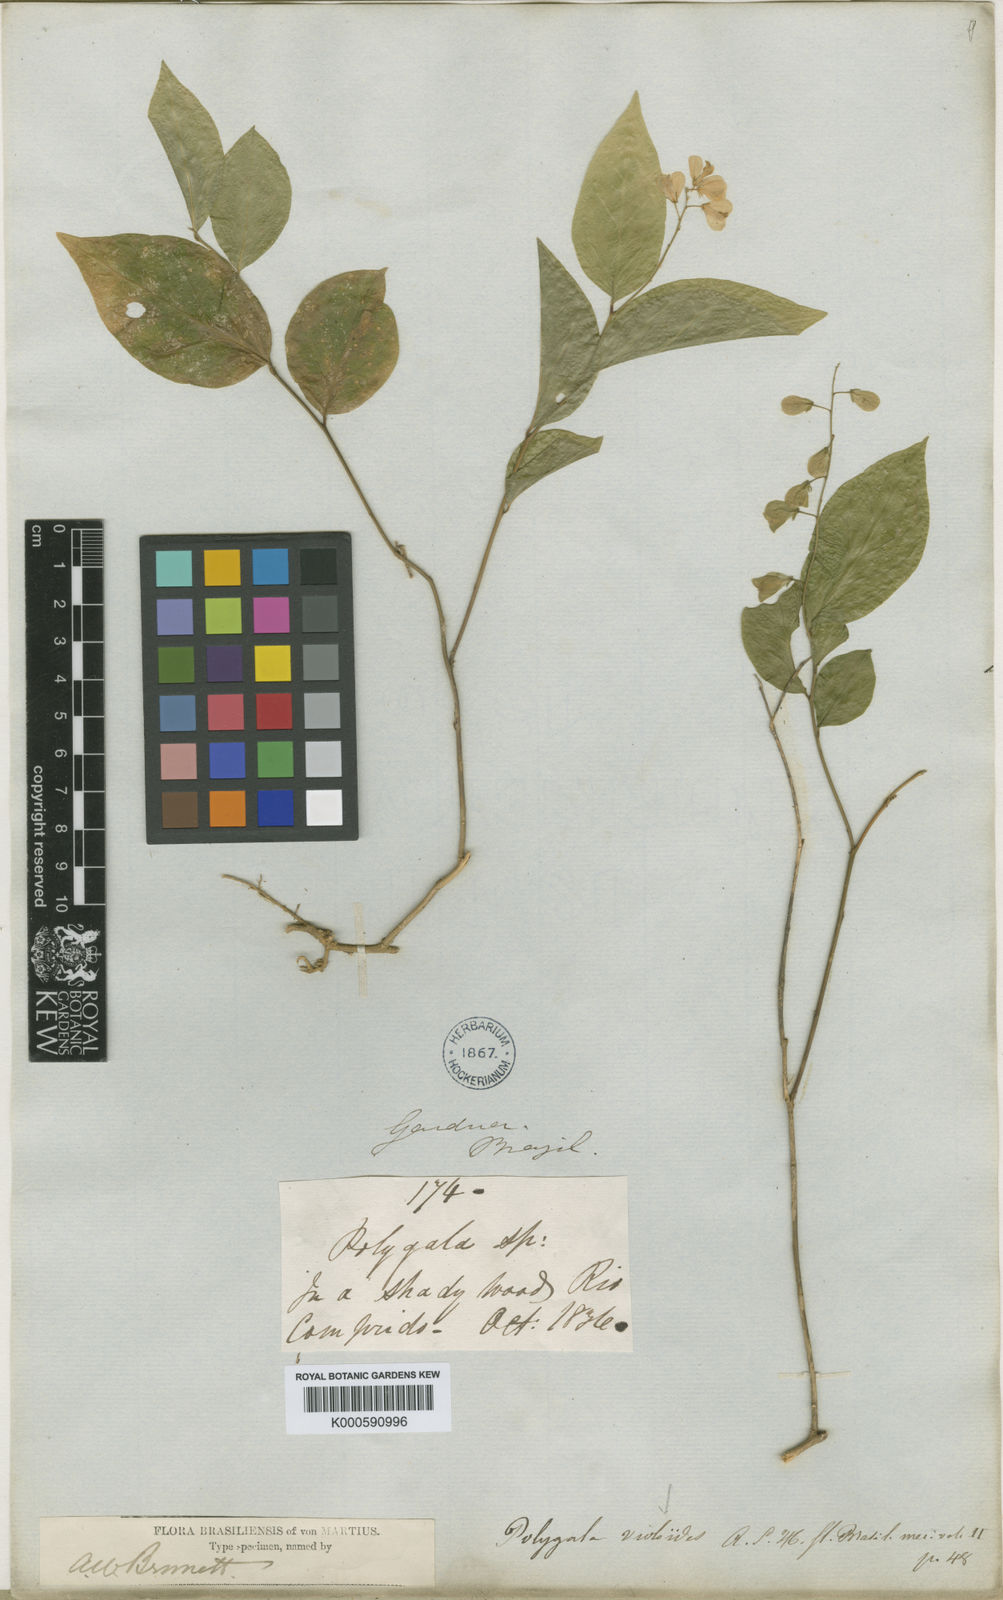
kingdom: Plantae
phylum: Tracheophyta
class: Magnoliopsida
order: Fabales
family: Polygalaceae
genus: Gymnospora
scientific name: Gymnospora violoides
